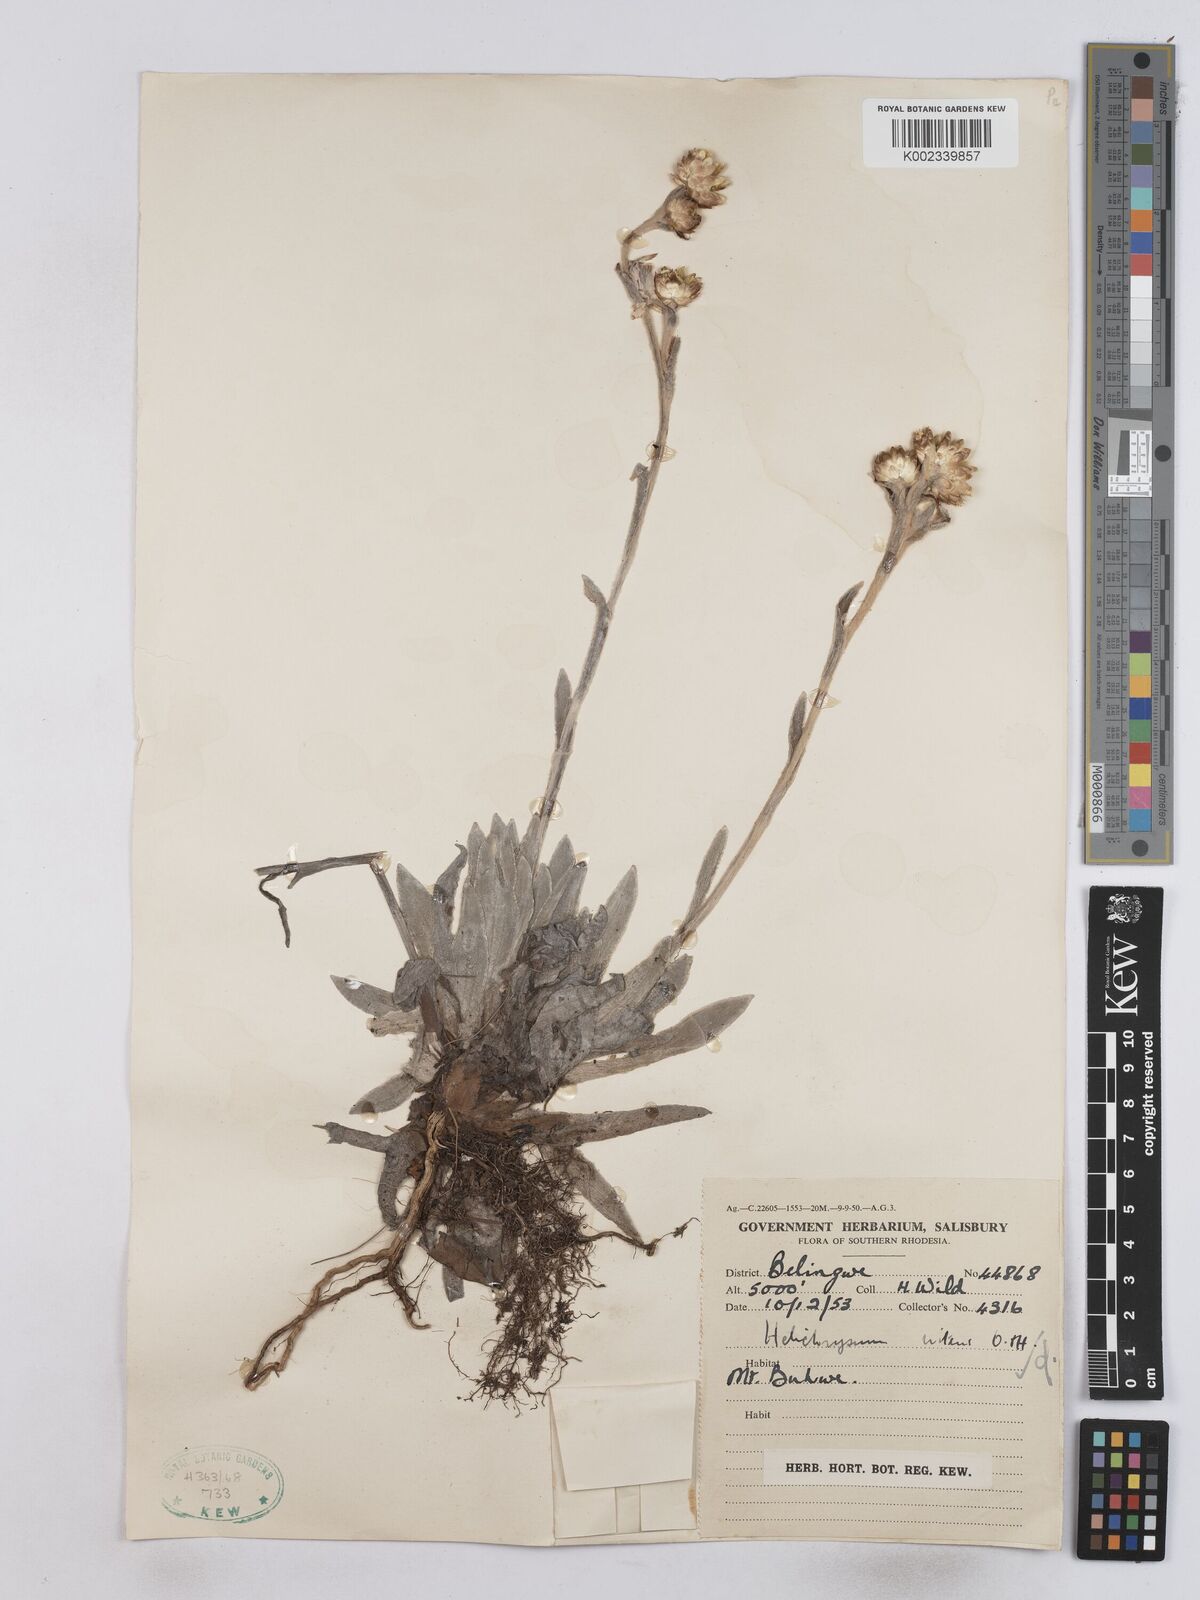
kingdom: Plantae
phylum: Tracheophyta
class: Magnoliopsida
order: Asterales
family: Asteraceae
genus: Helichrysum
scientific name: Helichrysum nitens
